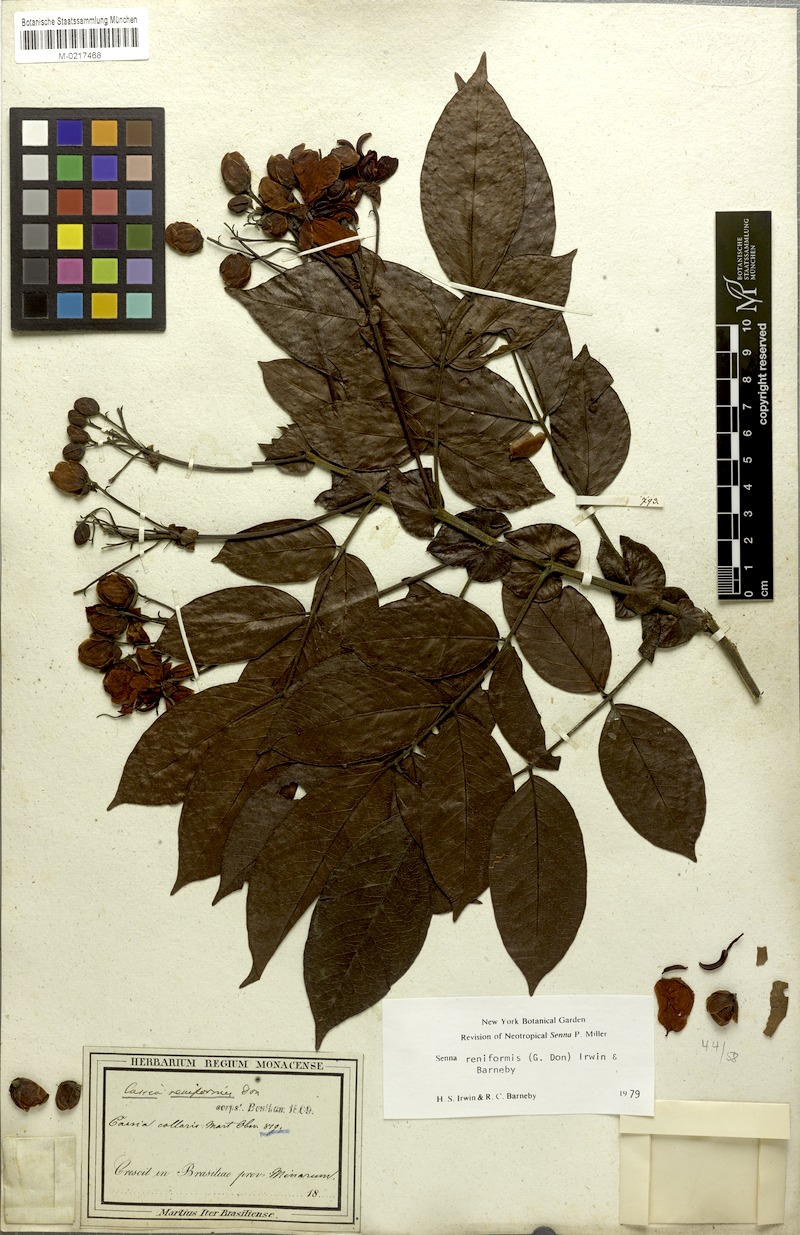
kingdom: Plantae
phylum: Tracheophyta
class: Magnoliopsida
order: Fabales
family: Fabaceae
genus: Senna
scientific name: Senna reniformis
